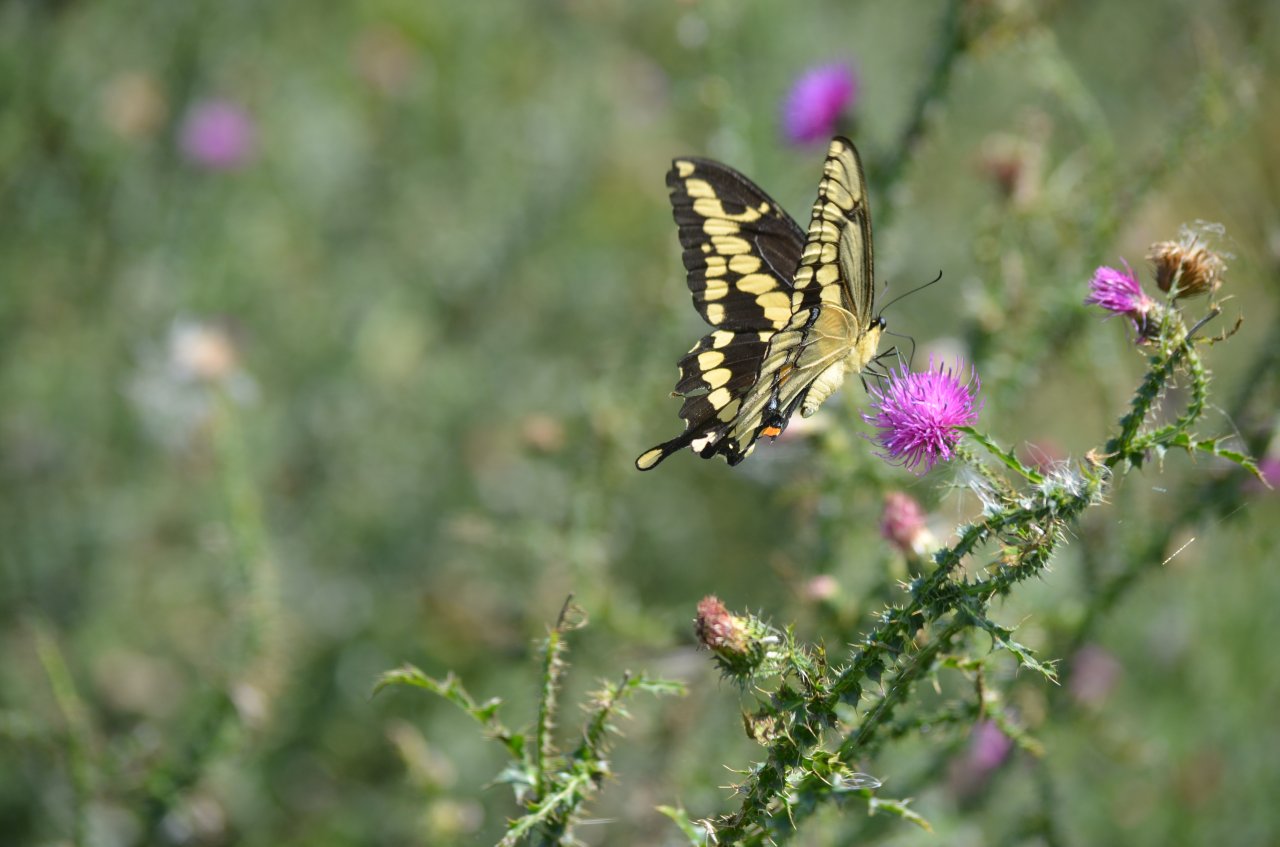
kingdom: Animalia
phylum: Arthropoda
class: Insecta
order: Lepidoptera
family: Papilionidae
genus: Papilio
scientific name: Papilio cresphontes
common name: Eastern Giant Swallowtail
